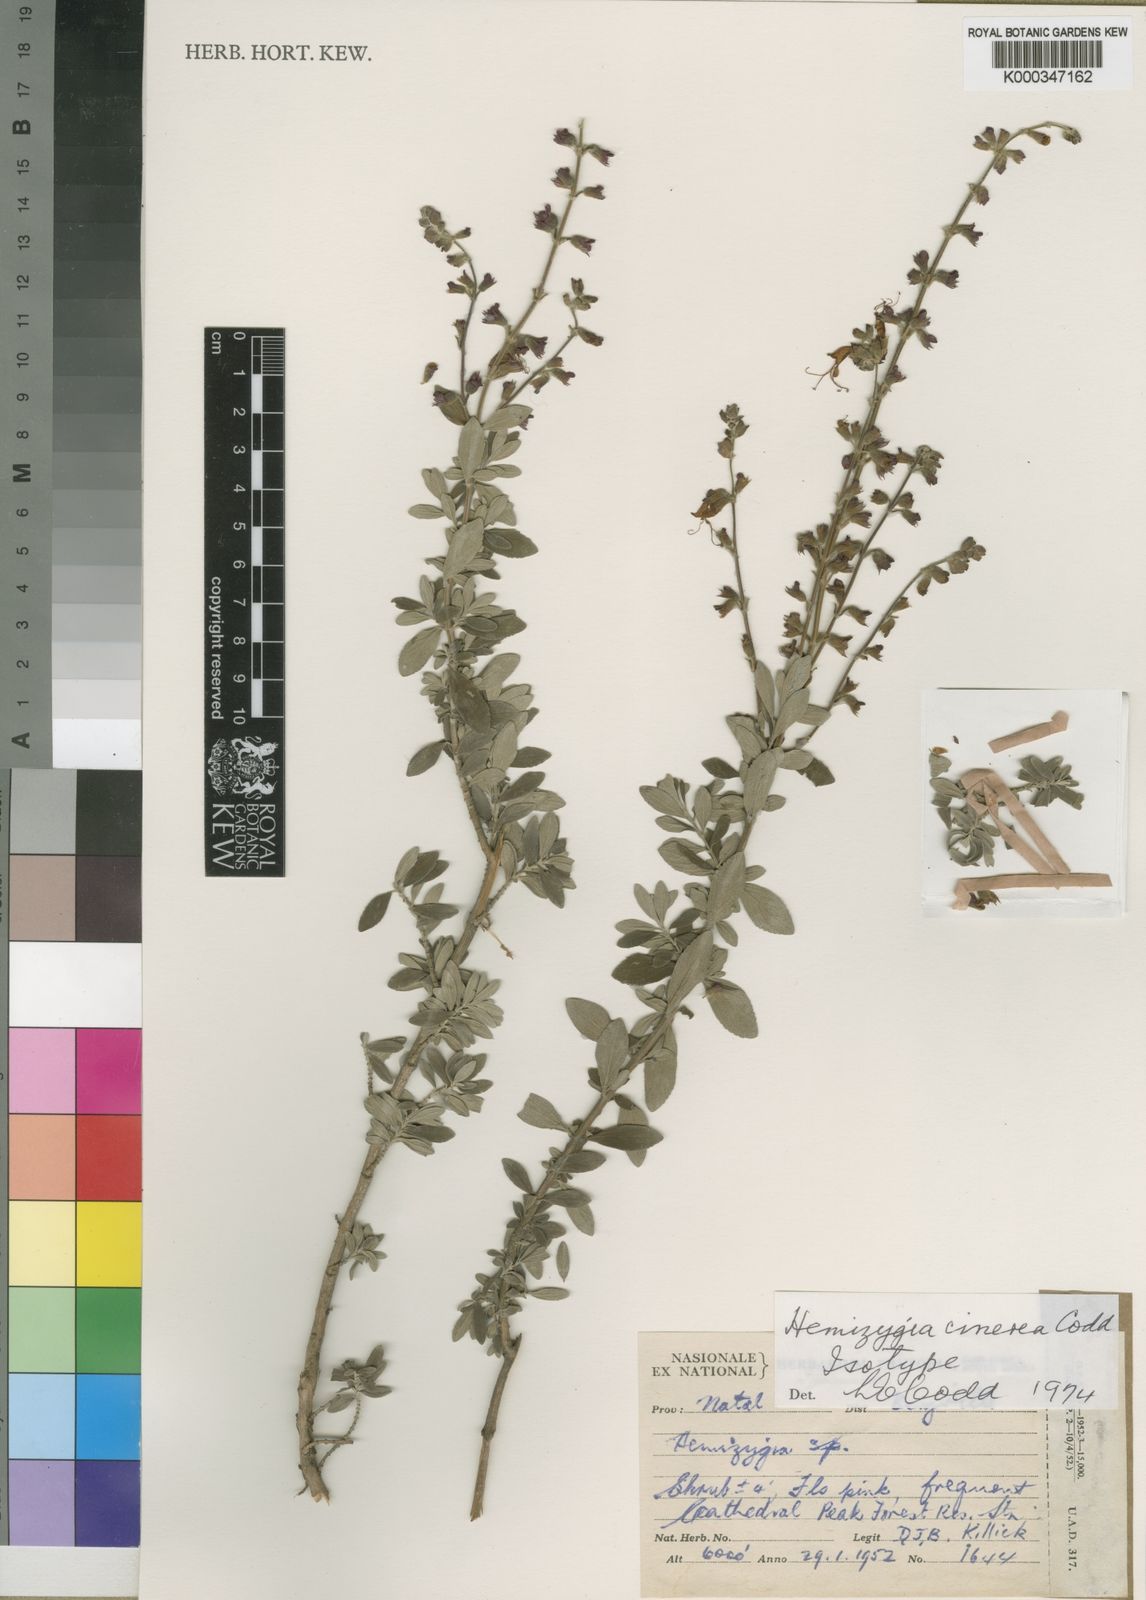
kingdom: Plantae
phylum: Tracheophyta
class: Magnoliopsida
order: Lamiales
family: Lamiaceae
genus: Syncolostemon
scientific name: Syncolostemon cinereum
